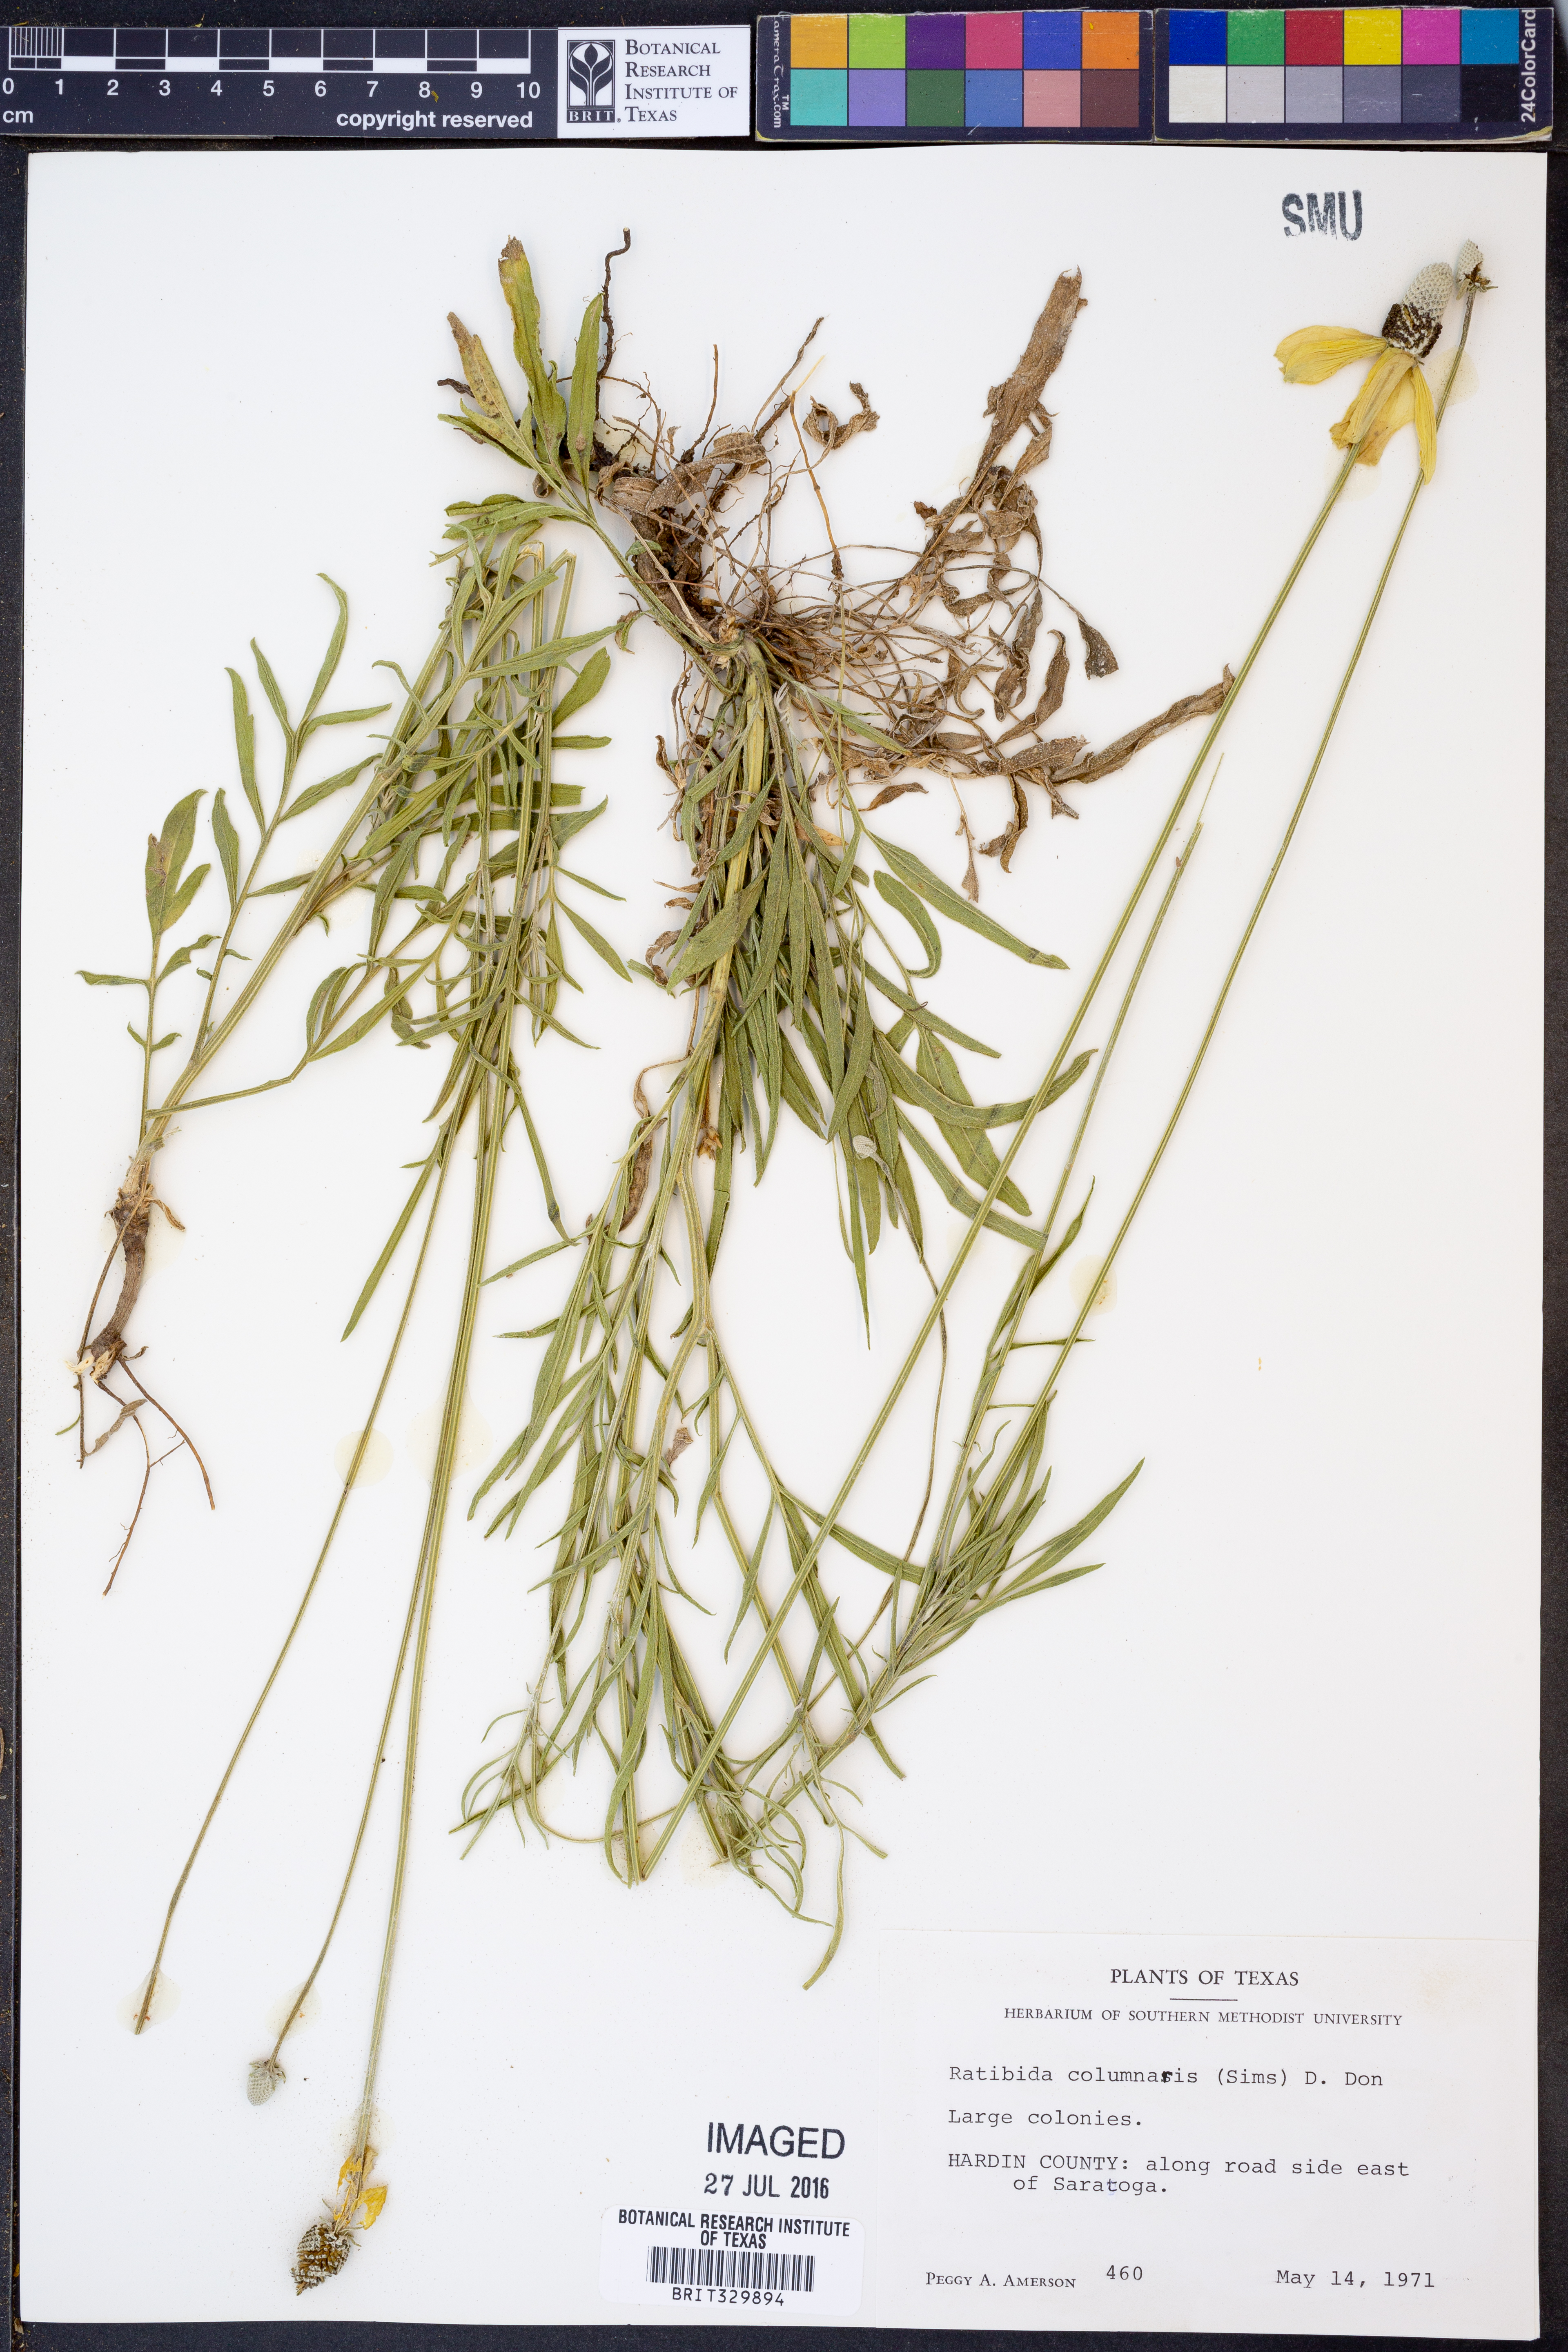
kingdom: Plantae
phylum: Tracheophyta
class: Magnoliopsida
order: Asterales
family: Asteraceae
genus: Ratibida
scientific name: Ratibida columnifera
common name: Prairie coneflower
